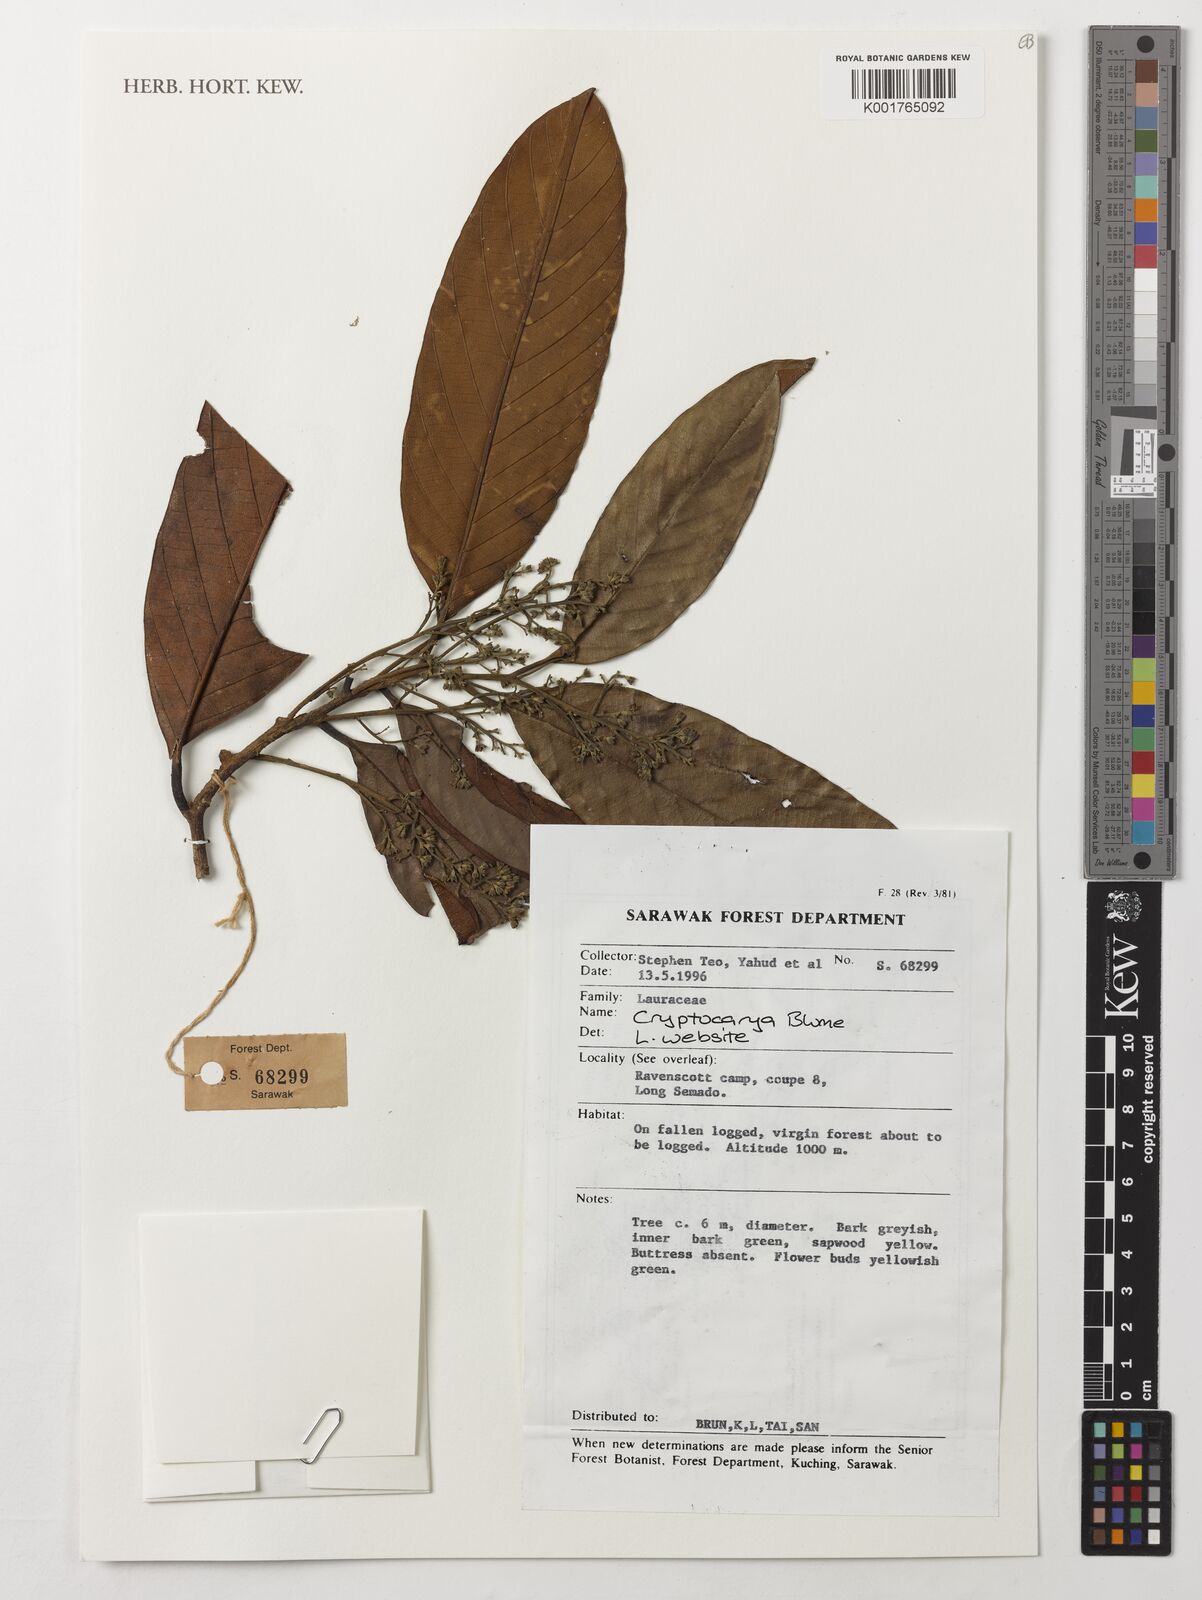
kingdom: Plantae
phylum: Tracheophyta
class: Magnoliopsida
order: Laurales
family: Lauraceae
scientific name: Lauraceae
